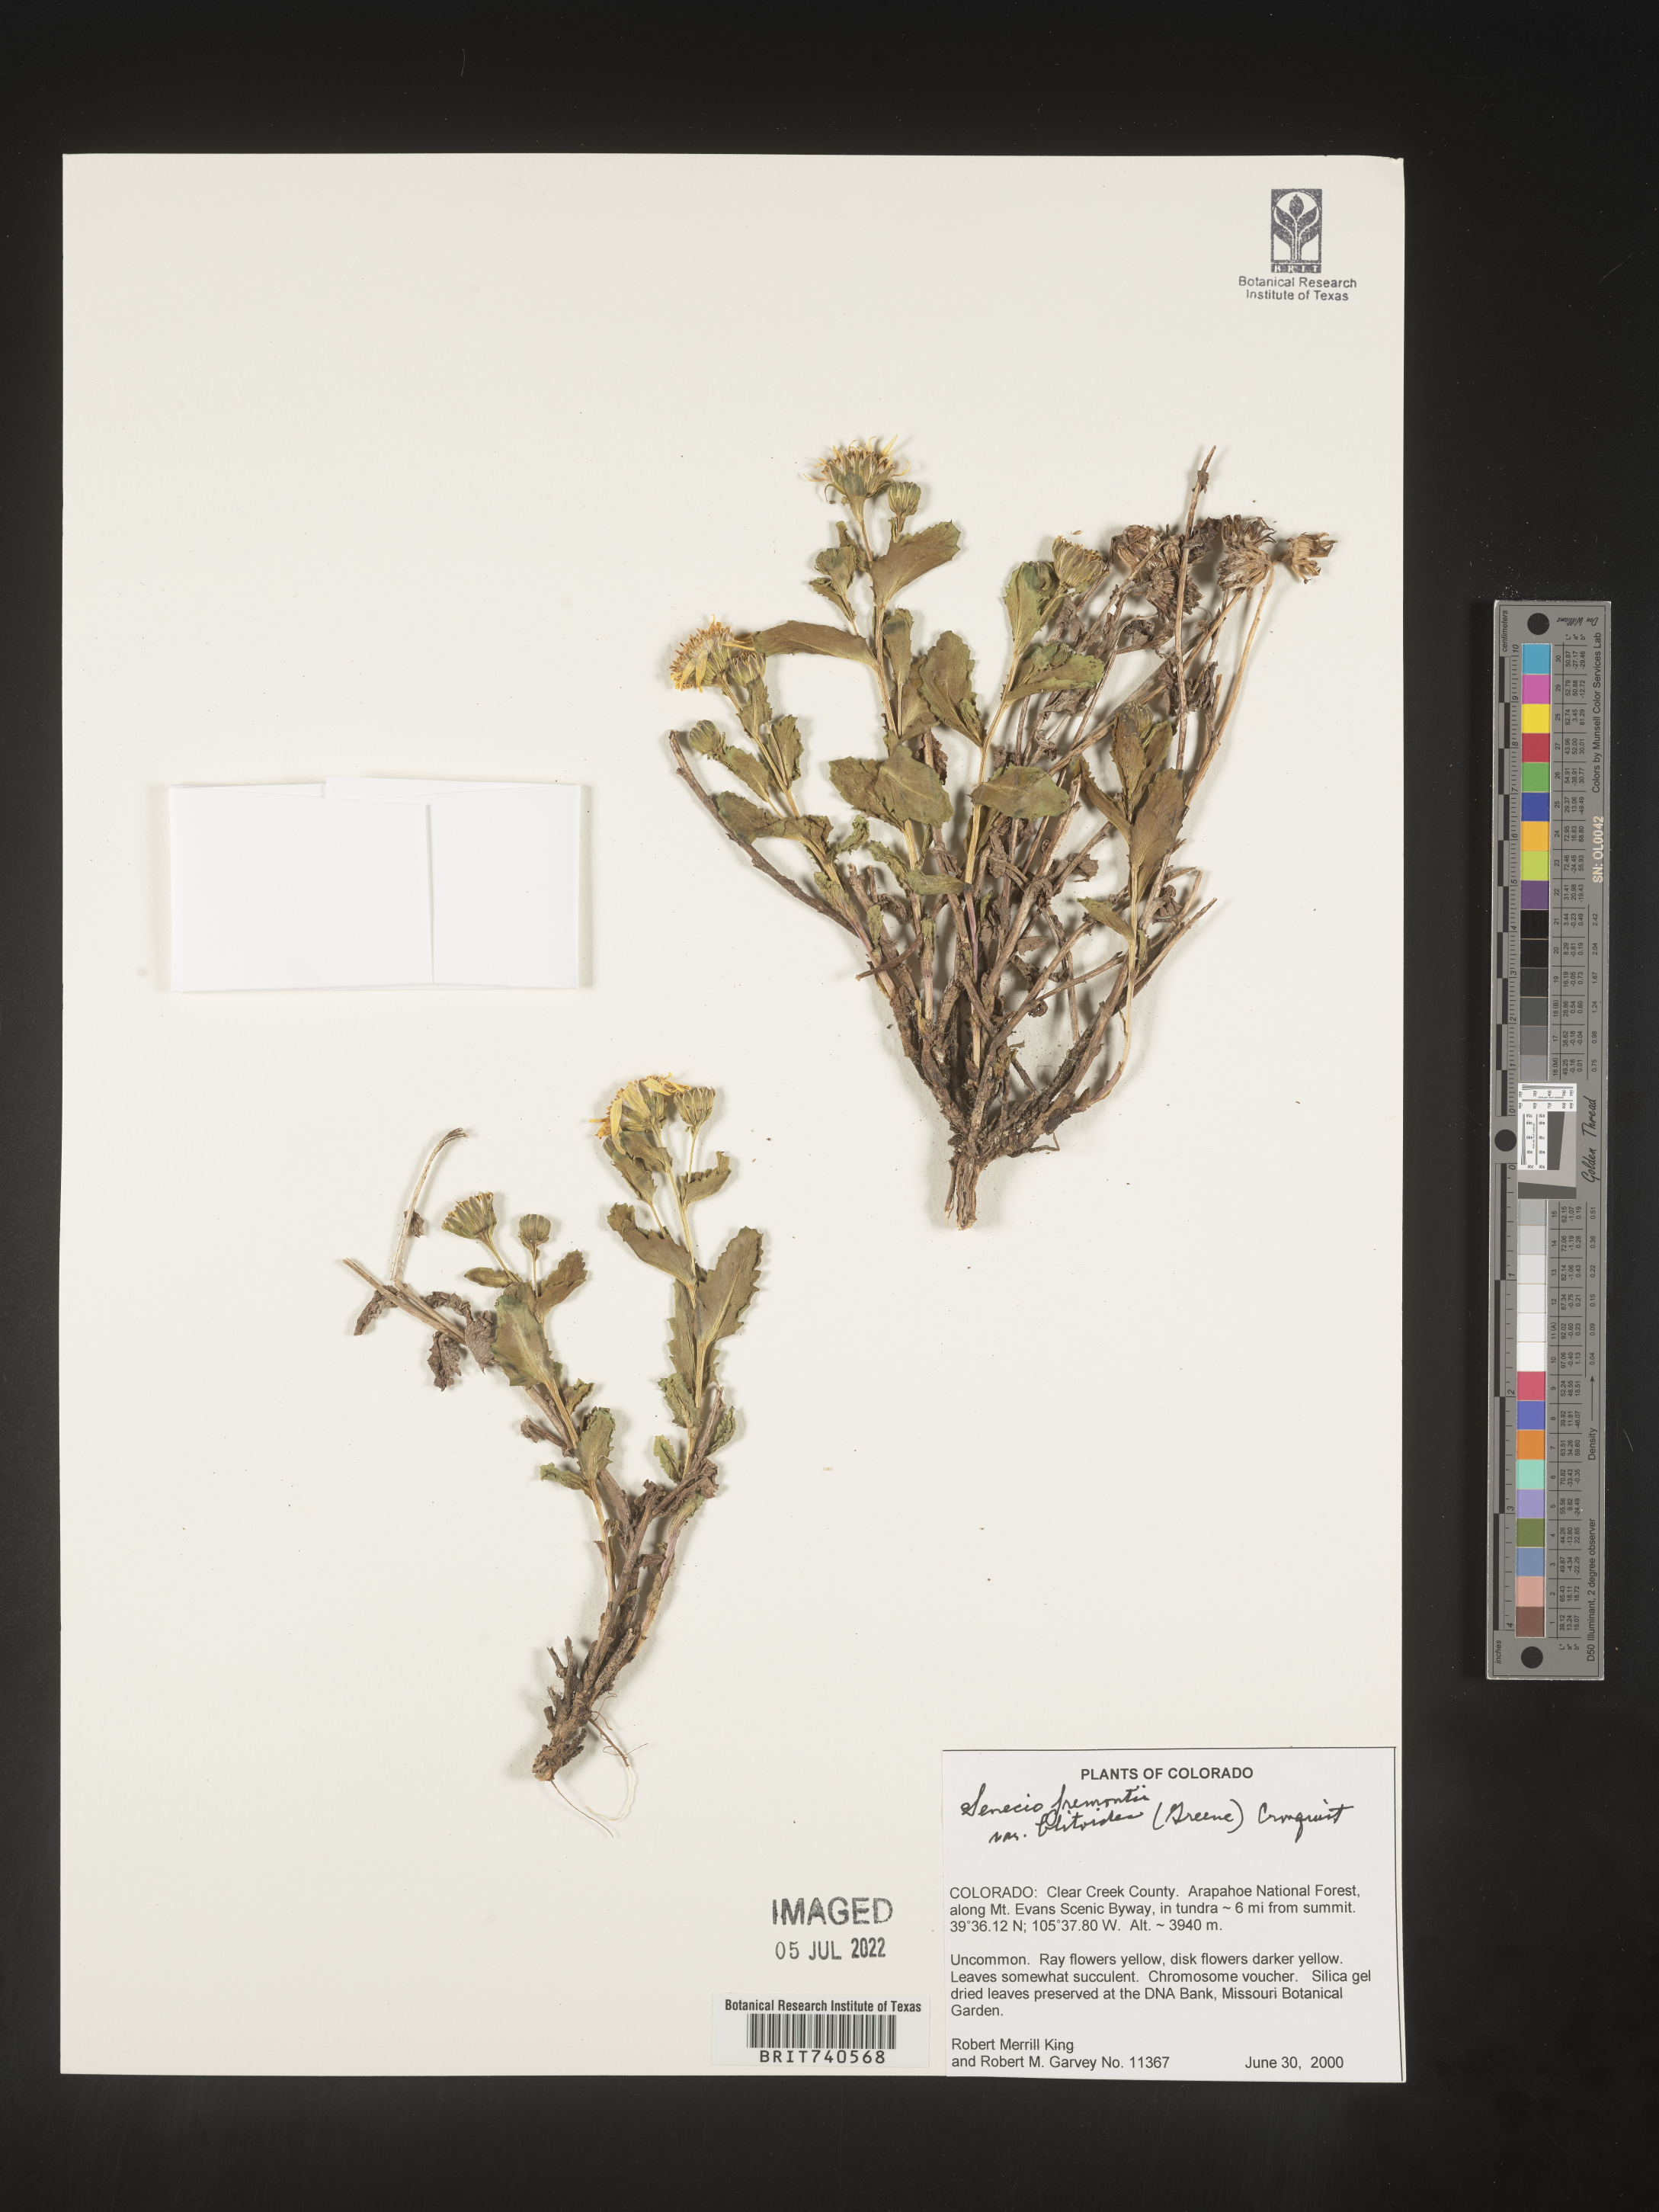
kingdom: Plantae
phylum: Tracheophyta
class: Magnoliopsida
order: Asterales
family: Asteraceae
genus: Senecio
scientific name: Senecio blitoides
